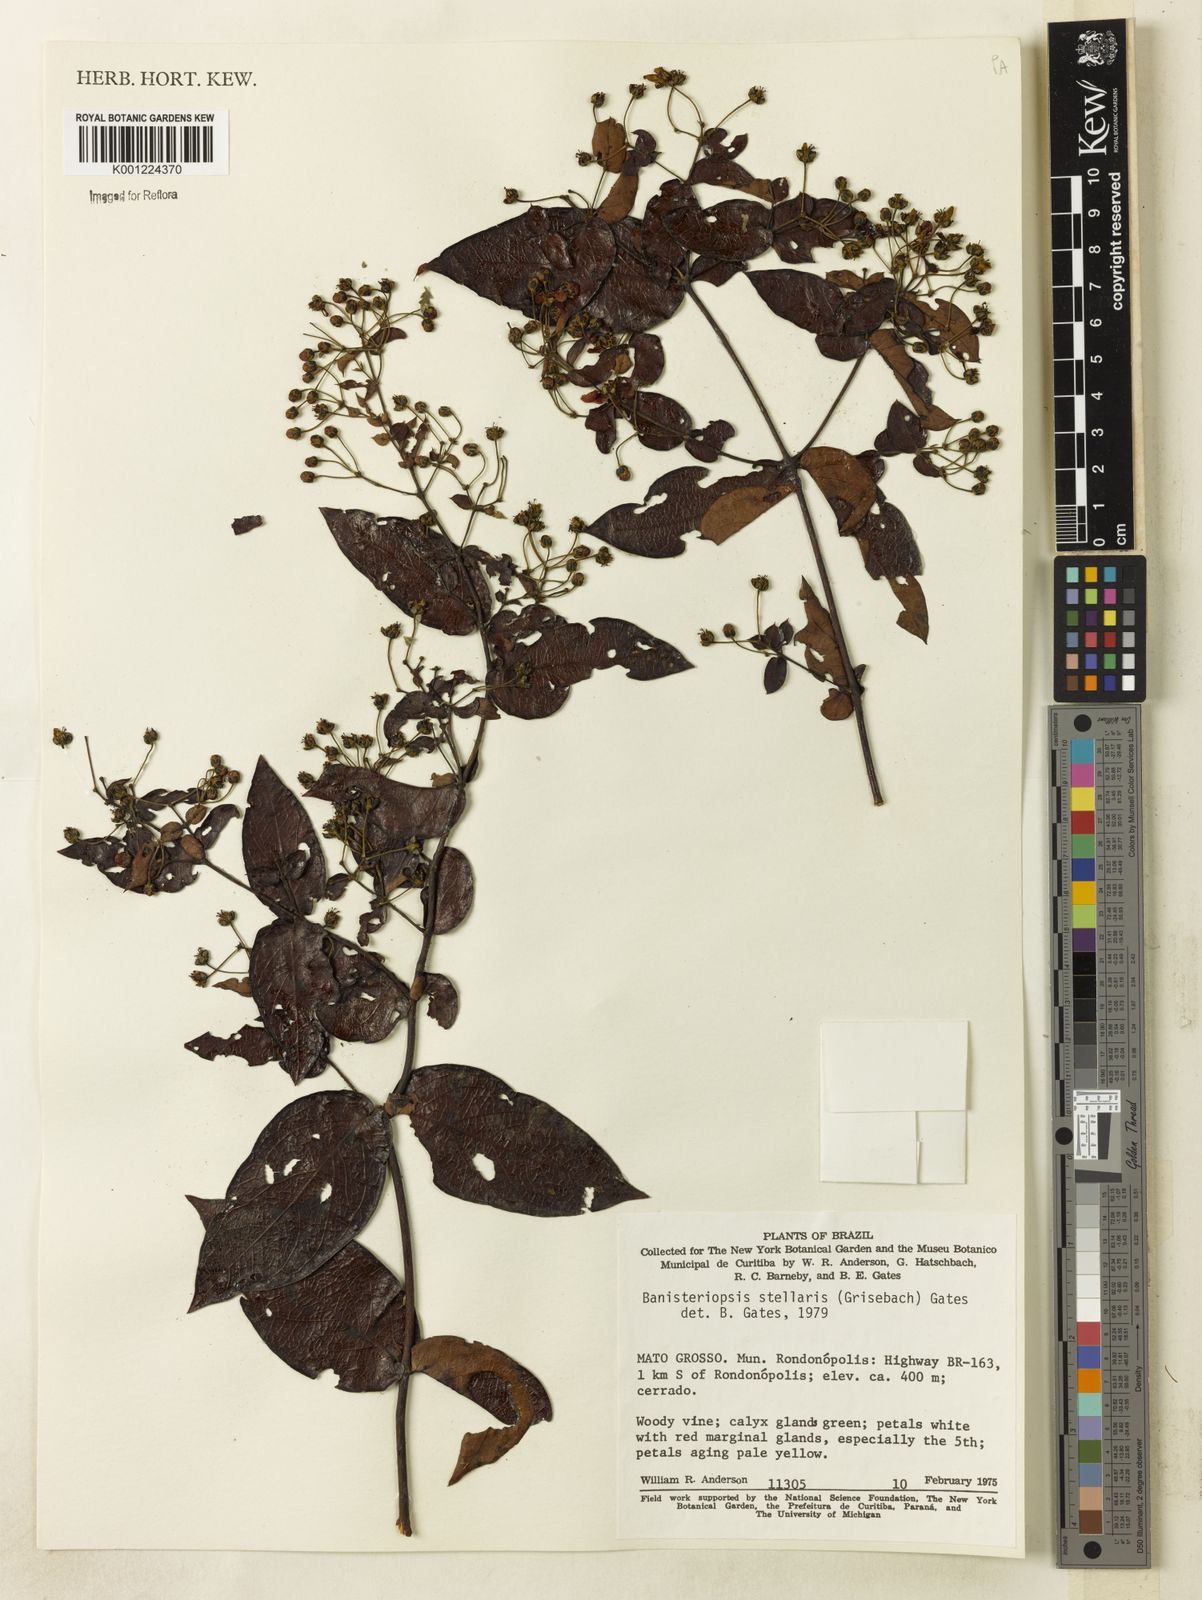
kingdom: Plantae
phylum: Tracheophyta
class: Magnoliopsida
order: Malpighiales
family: Malpighiaceae
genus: Banisteriopsis
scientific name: Banisteriopsis stellaris
